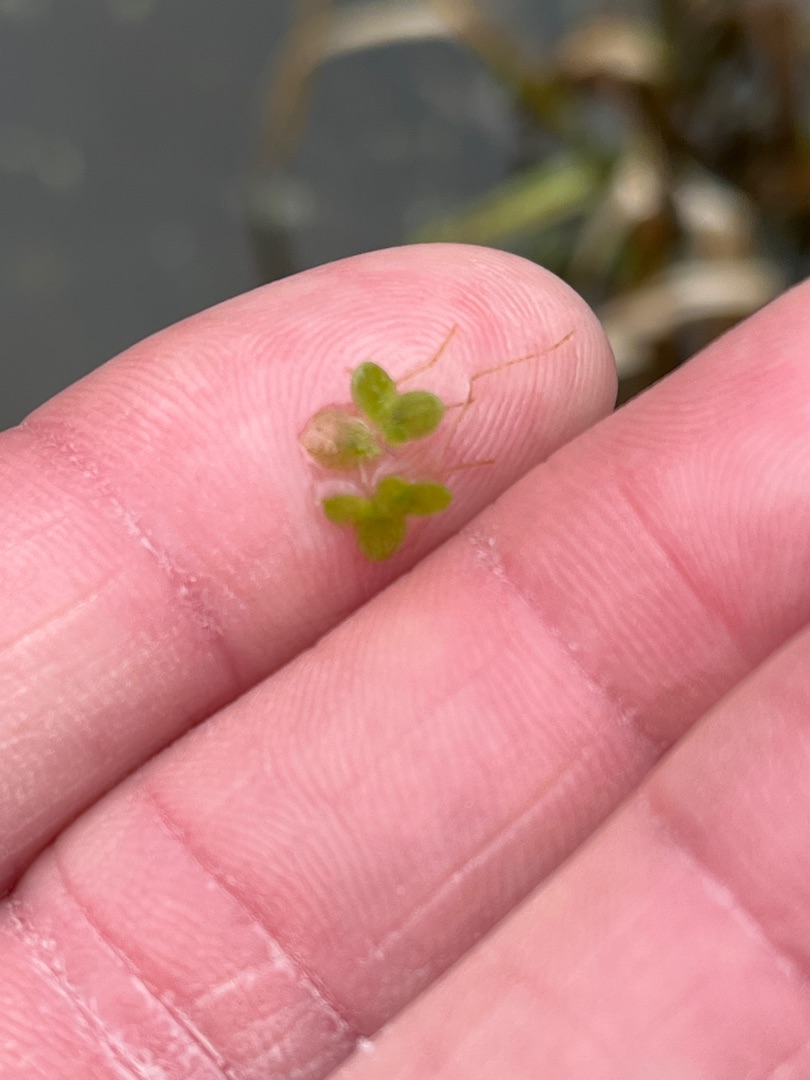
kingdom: Plantae
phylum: Tracheophyta
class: Liliopsida
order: Alismatales
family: Araceae
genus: Lemna
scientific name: Lemna minor
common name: Liden andemad
